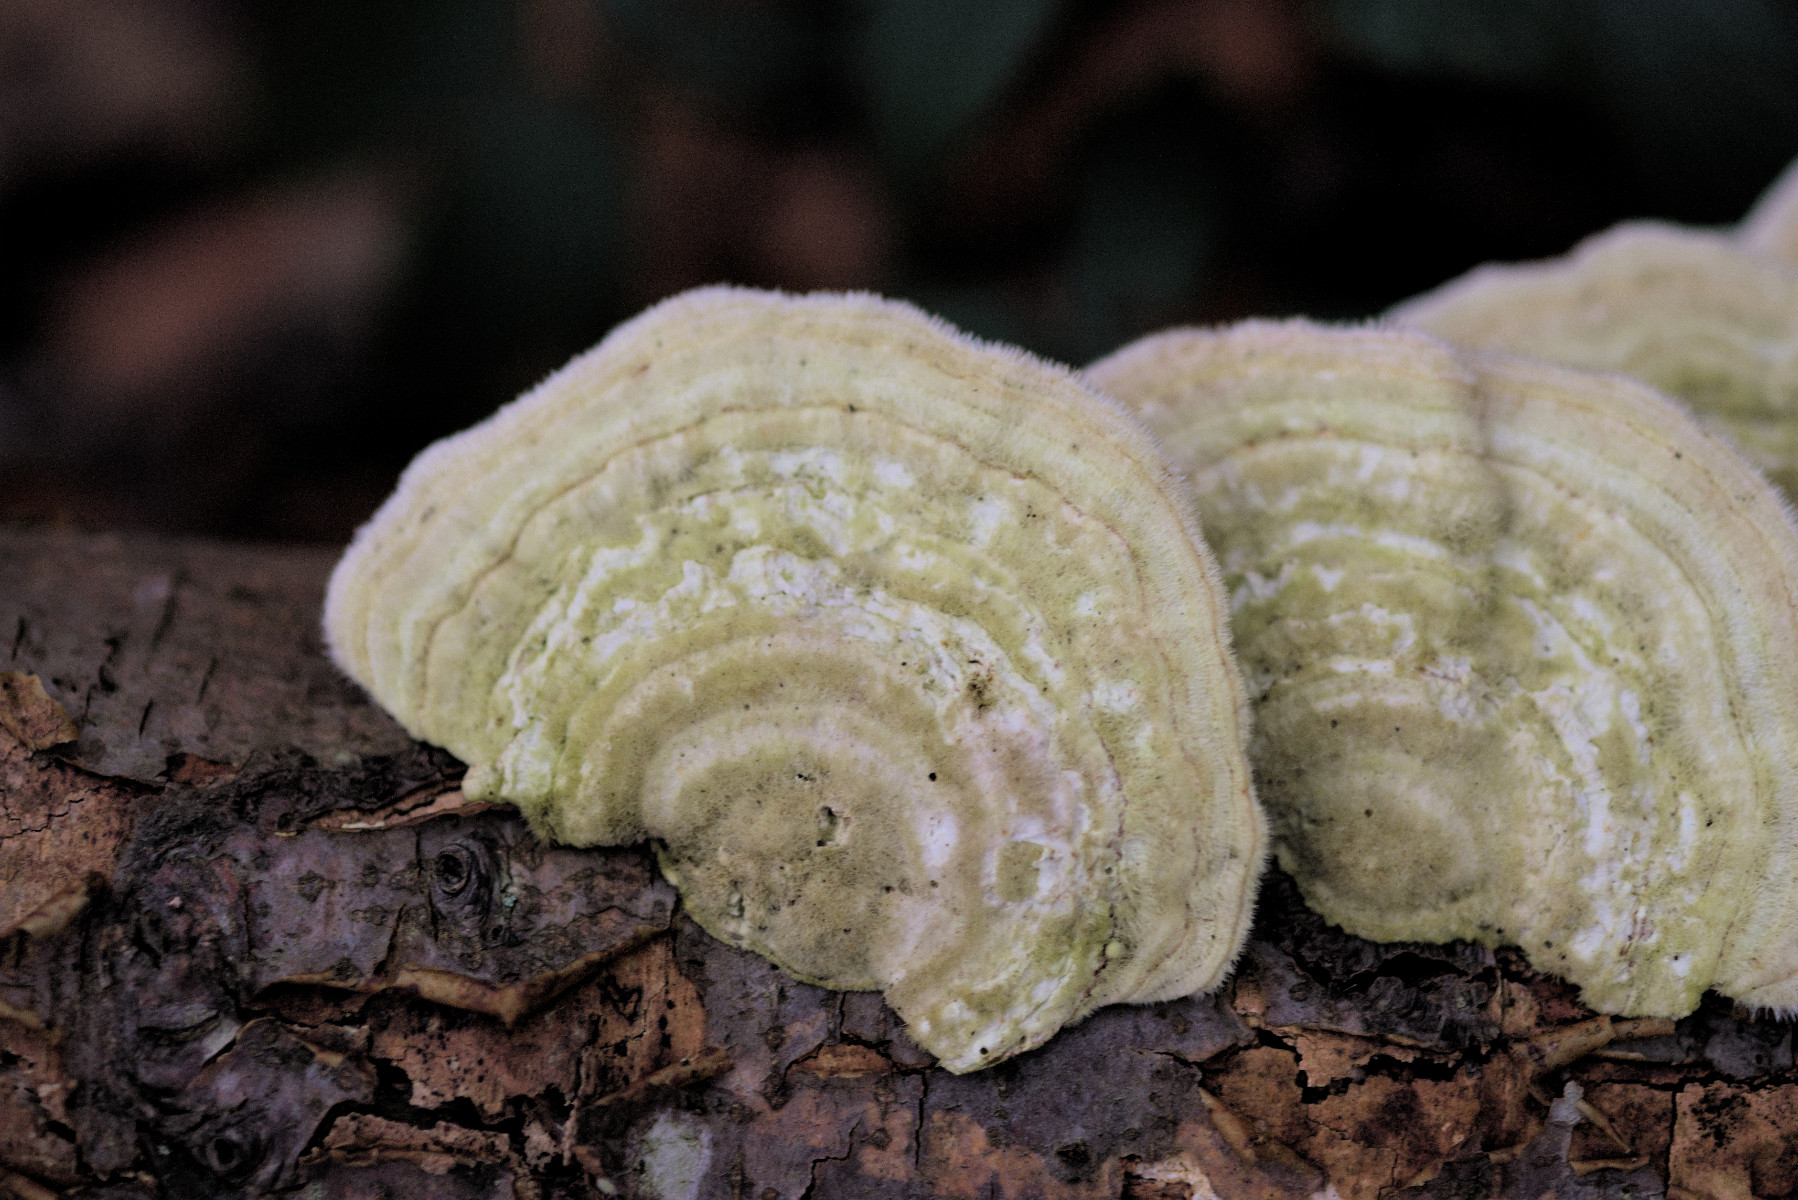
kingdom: Fungi
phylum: Basidiomycota
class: Agaricomycetes
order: Polyporales
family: Polyporaceae
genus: Trametes
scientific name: Trametes hirsuta
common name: håret læderporesvamp
